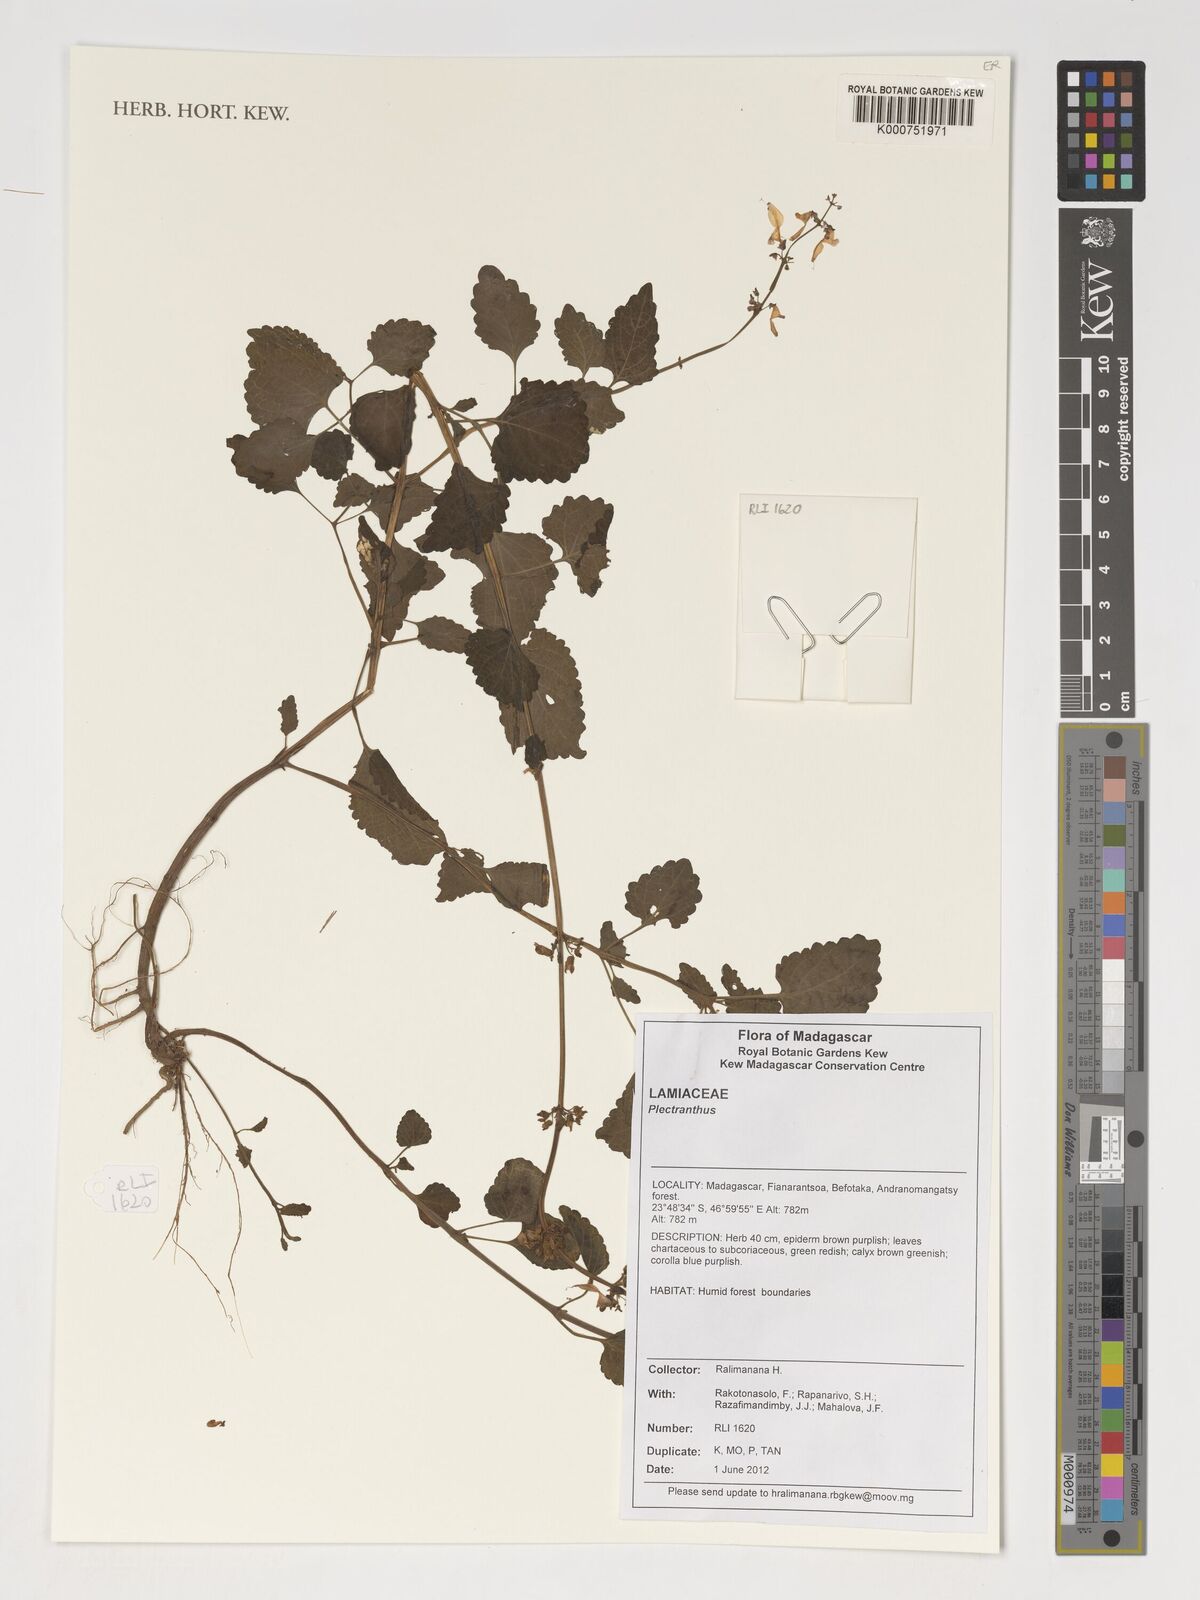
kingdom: Plantae
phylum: Tracheophyta
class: Magnoliopsida
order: Lamiales
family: Lamiaceae
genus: Plectranthus
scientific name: Plectranthus
